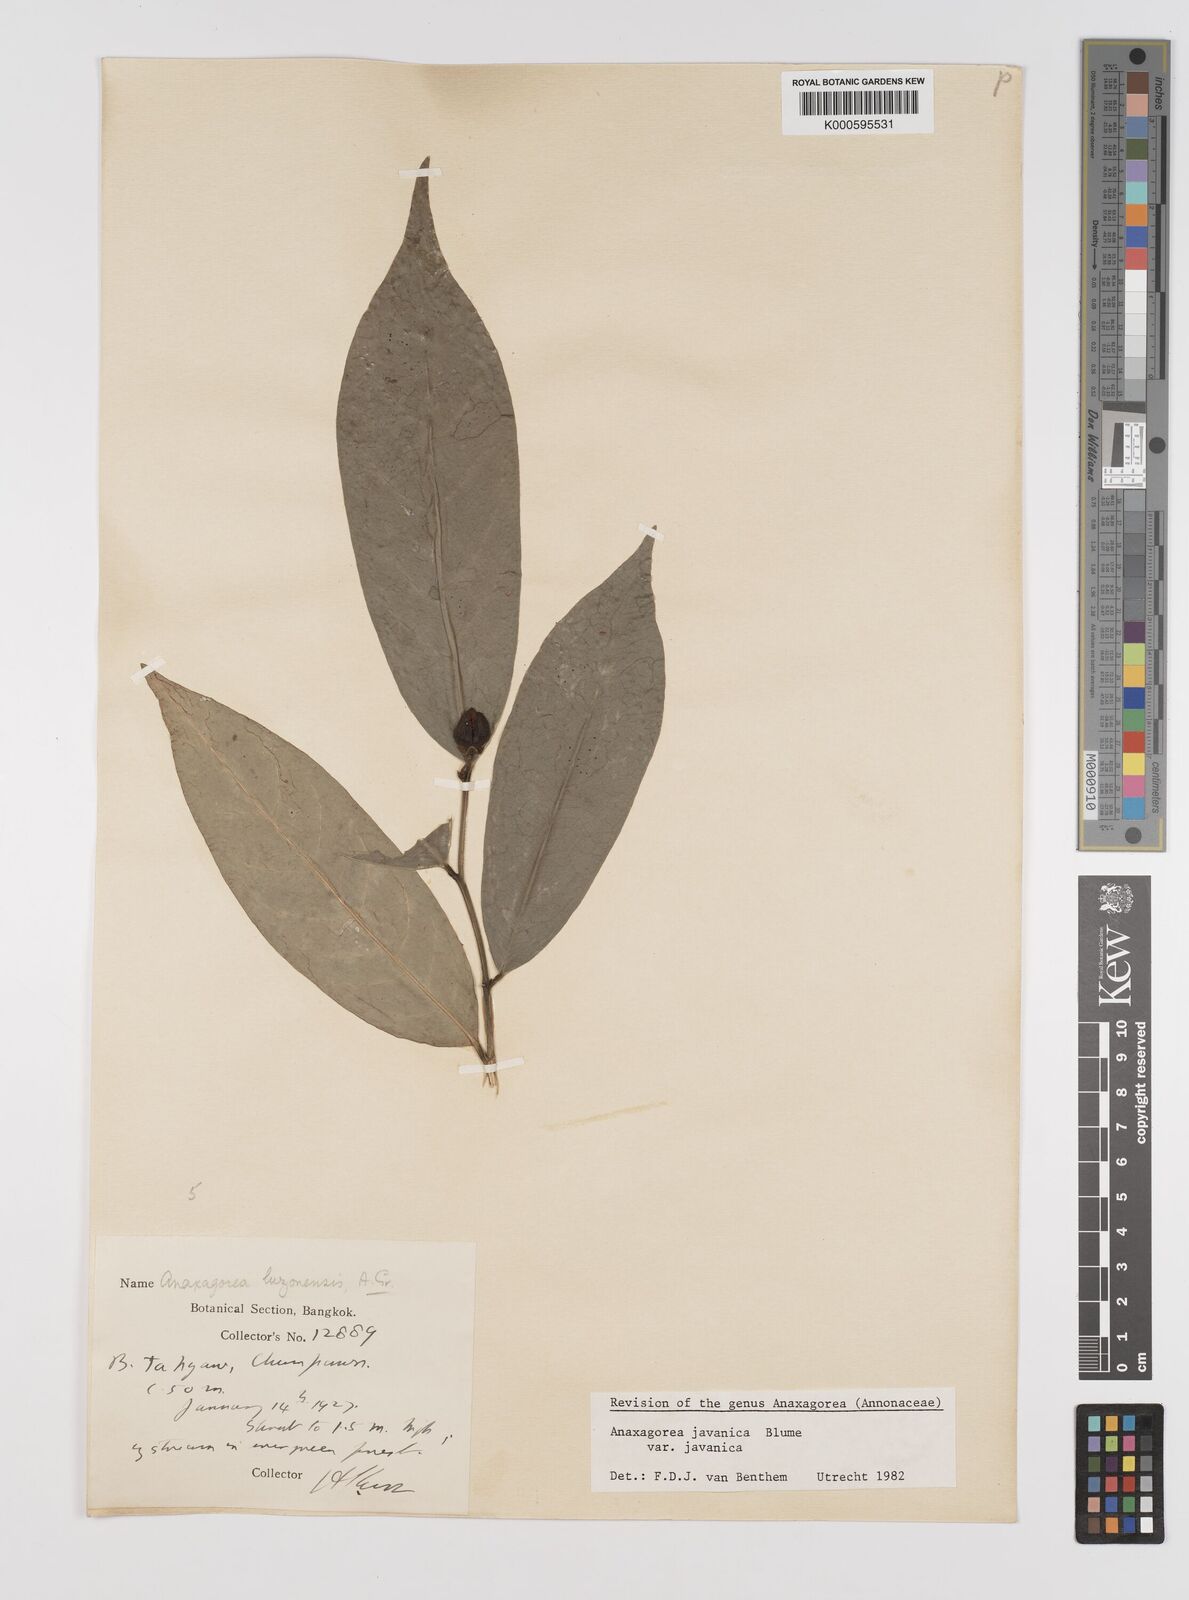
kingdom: Plantae
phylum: Tracheophyta
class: Magnoliopsida
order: Magnoliales
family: Annonaceae
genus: Anaxagorea
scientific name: Anaxagorea javanica
